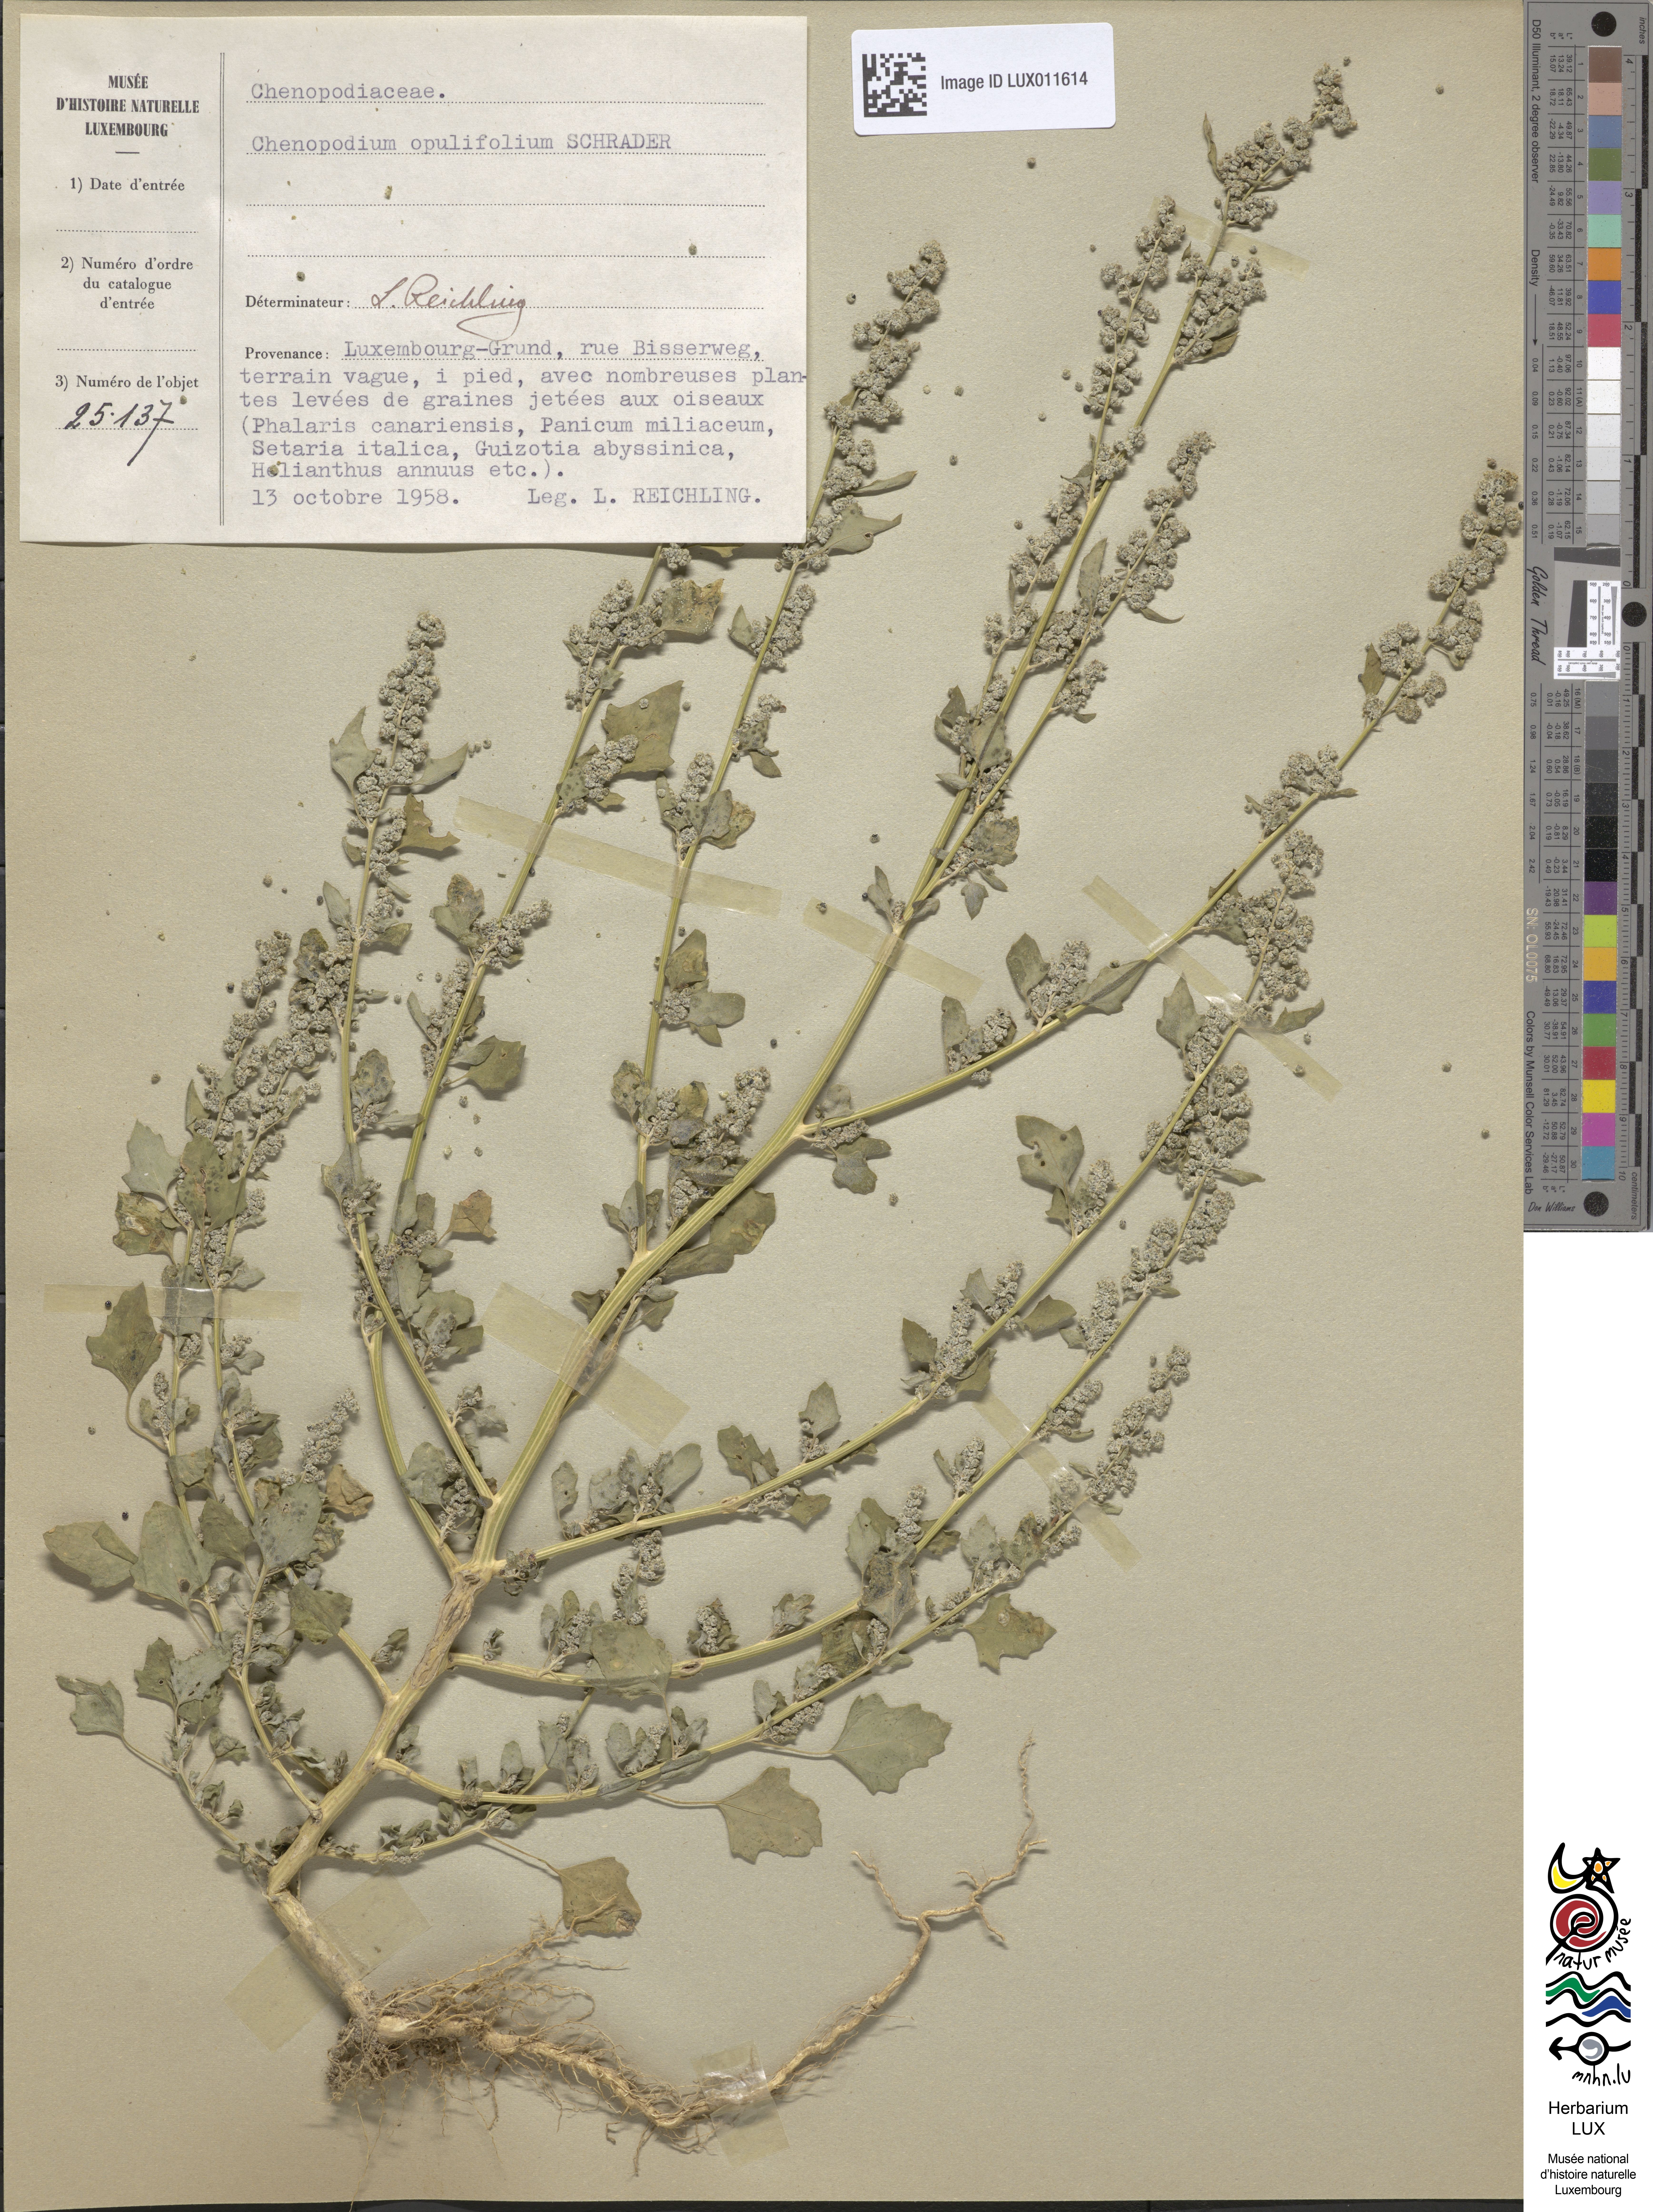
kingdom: Plantae
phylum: Tracheophyta
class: Magnoliopsida
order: Caryophyllales
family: Amaranthaceae
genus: Chenopodium
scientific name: Chenopodium opulifolium
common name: Grey goosefoot
